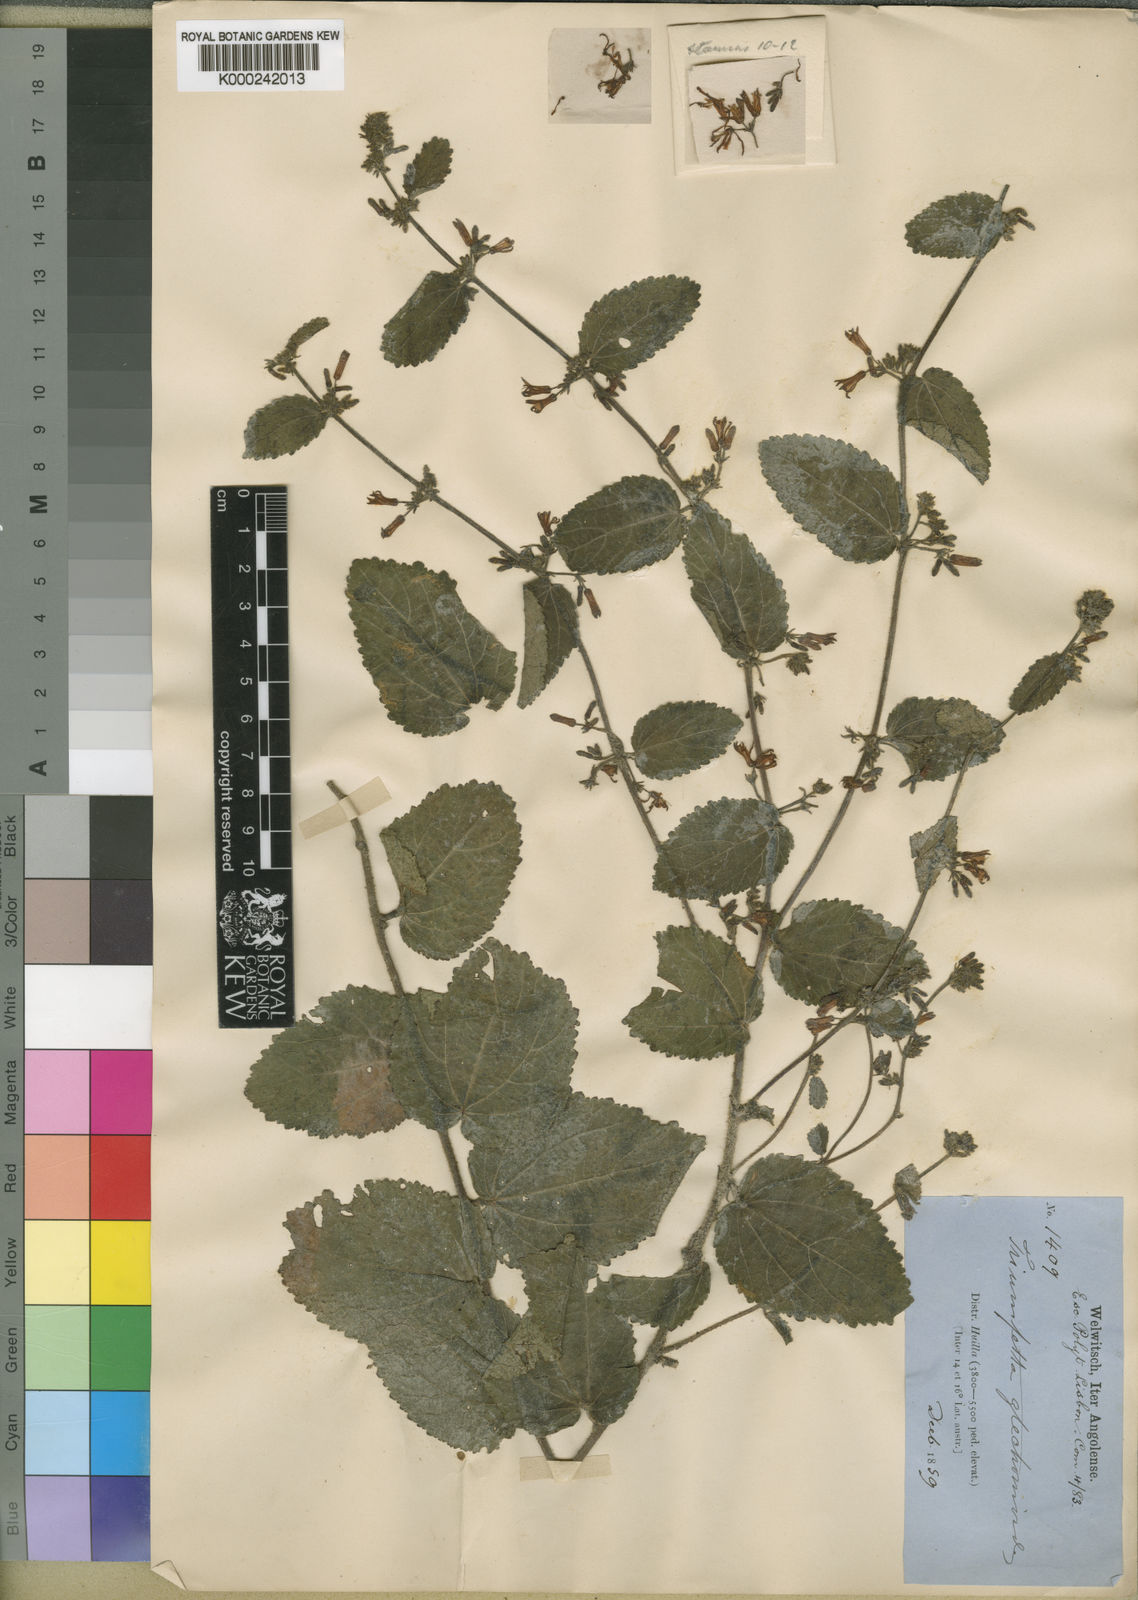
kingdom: Plantae
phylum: Tracheophyta
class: Magnoliopsida
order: Malvales
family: Malvaceae
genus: Triumfetta
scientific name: Triumfetta glechomoides
